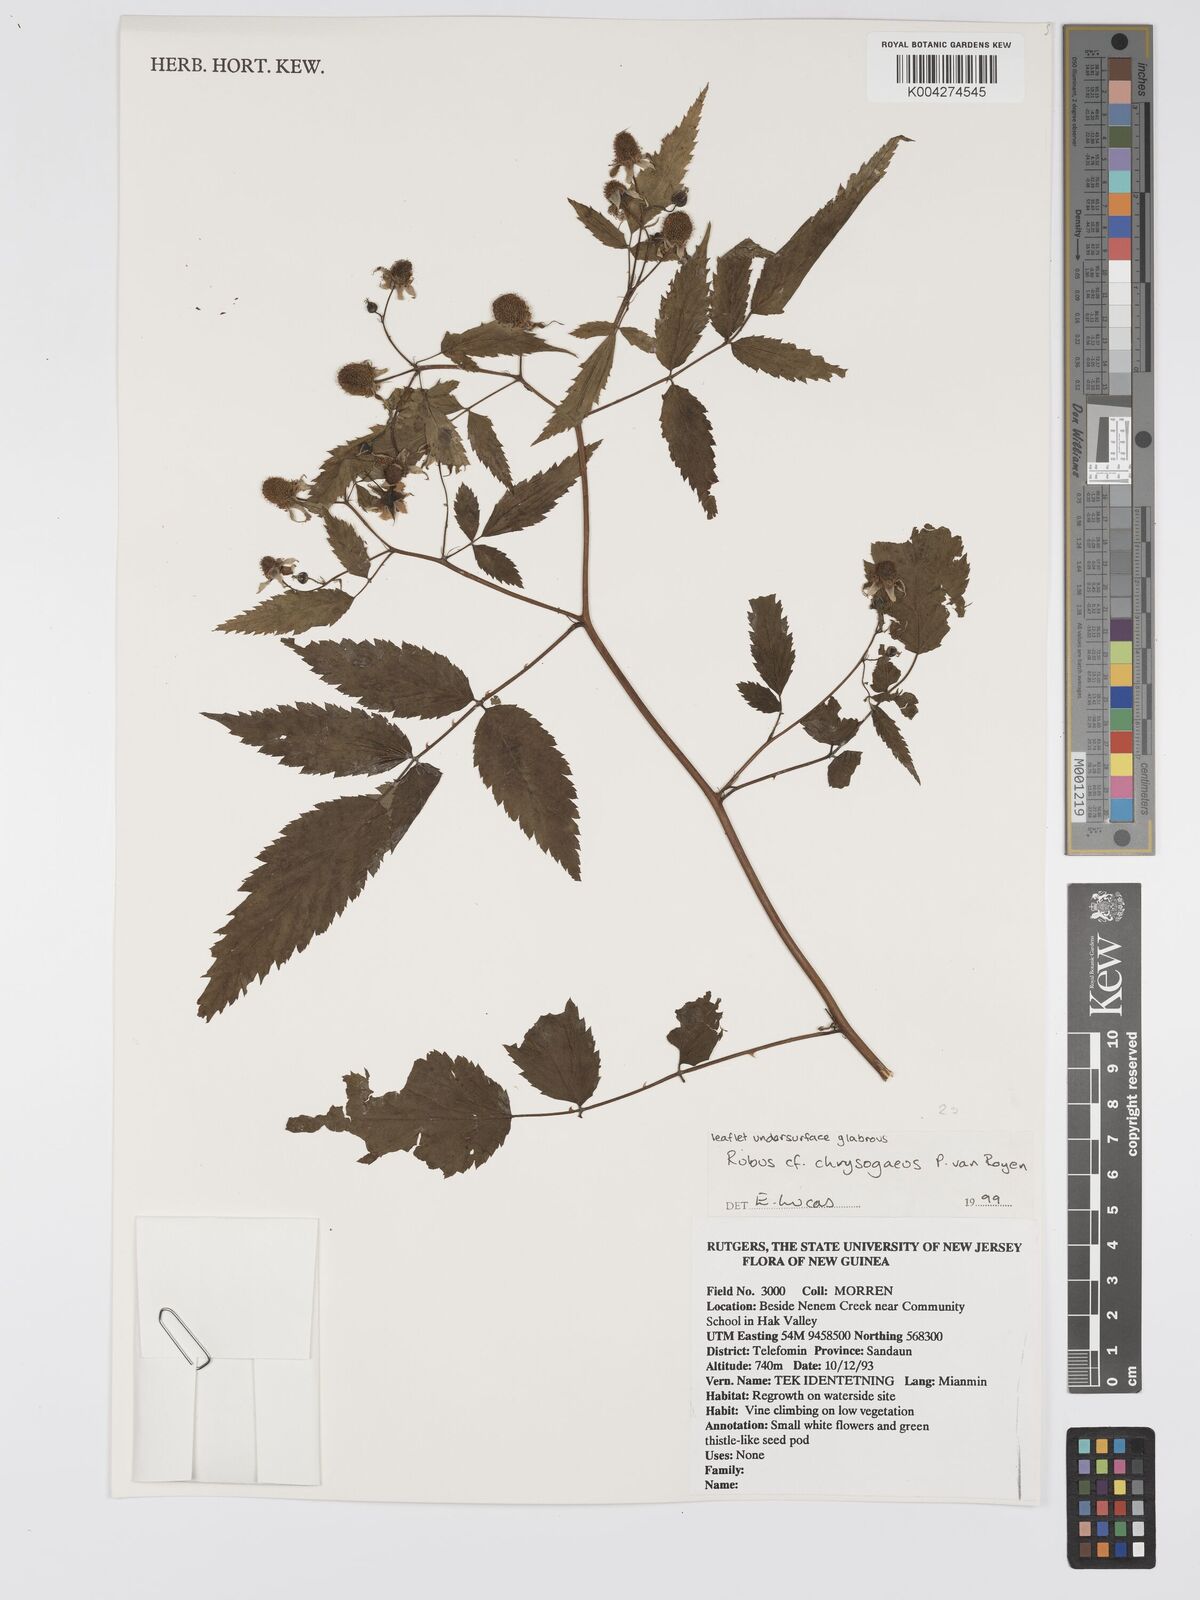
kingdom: Plantae
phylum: Tracheophyta
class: Magnoliopsida
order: Rosales
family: Rosaceae
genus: Rubus
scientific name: Rubus chrysogaeus
